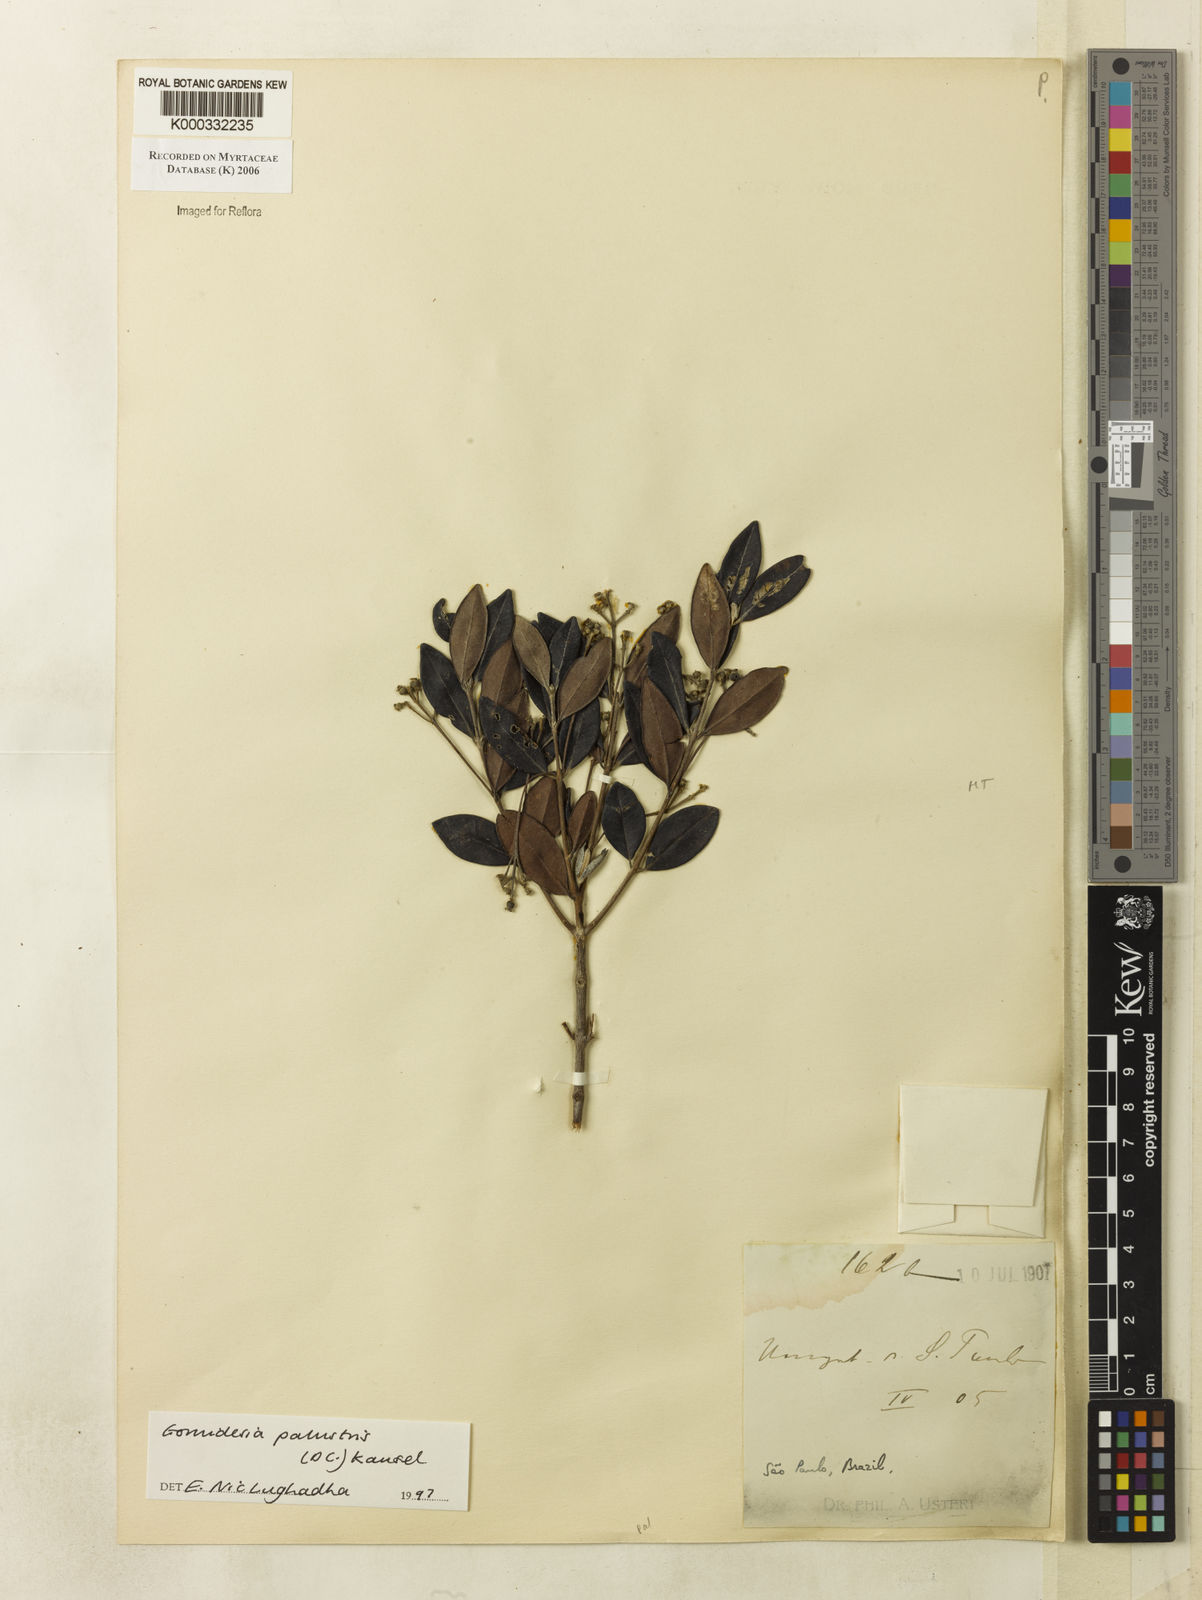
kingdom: Plantae
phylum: Tracheophyta
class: Magnoliopsida
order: Myrtales
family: Myrtaceae
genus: Myrcia
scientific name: Myrcia palustris
